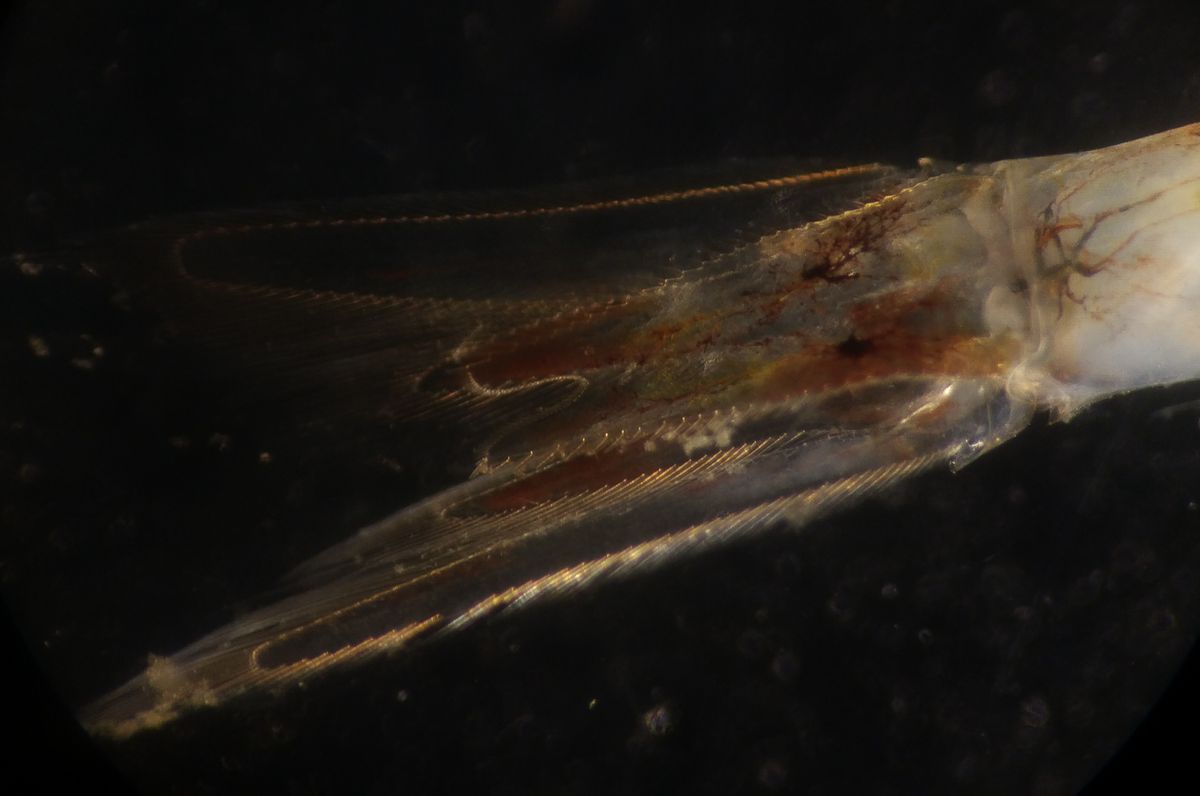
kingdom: Animalia
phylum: Arthropoda
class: Malacostraca
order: Mysida
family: Mysidae
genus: Mysis
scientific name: Mysis oculata
